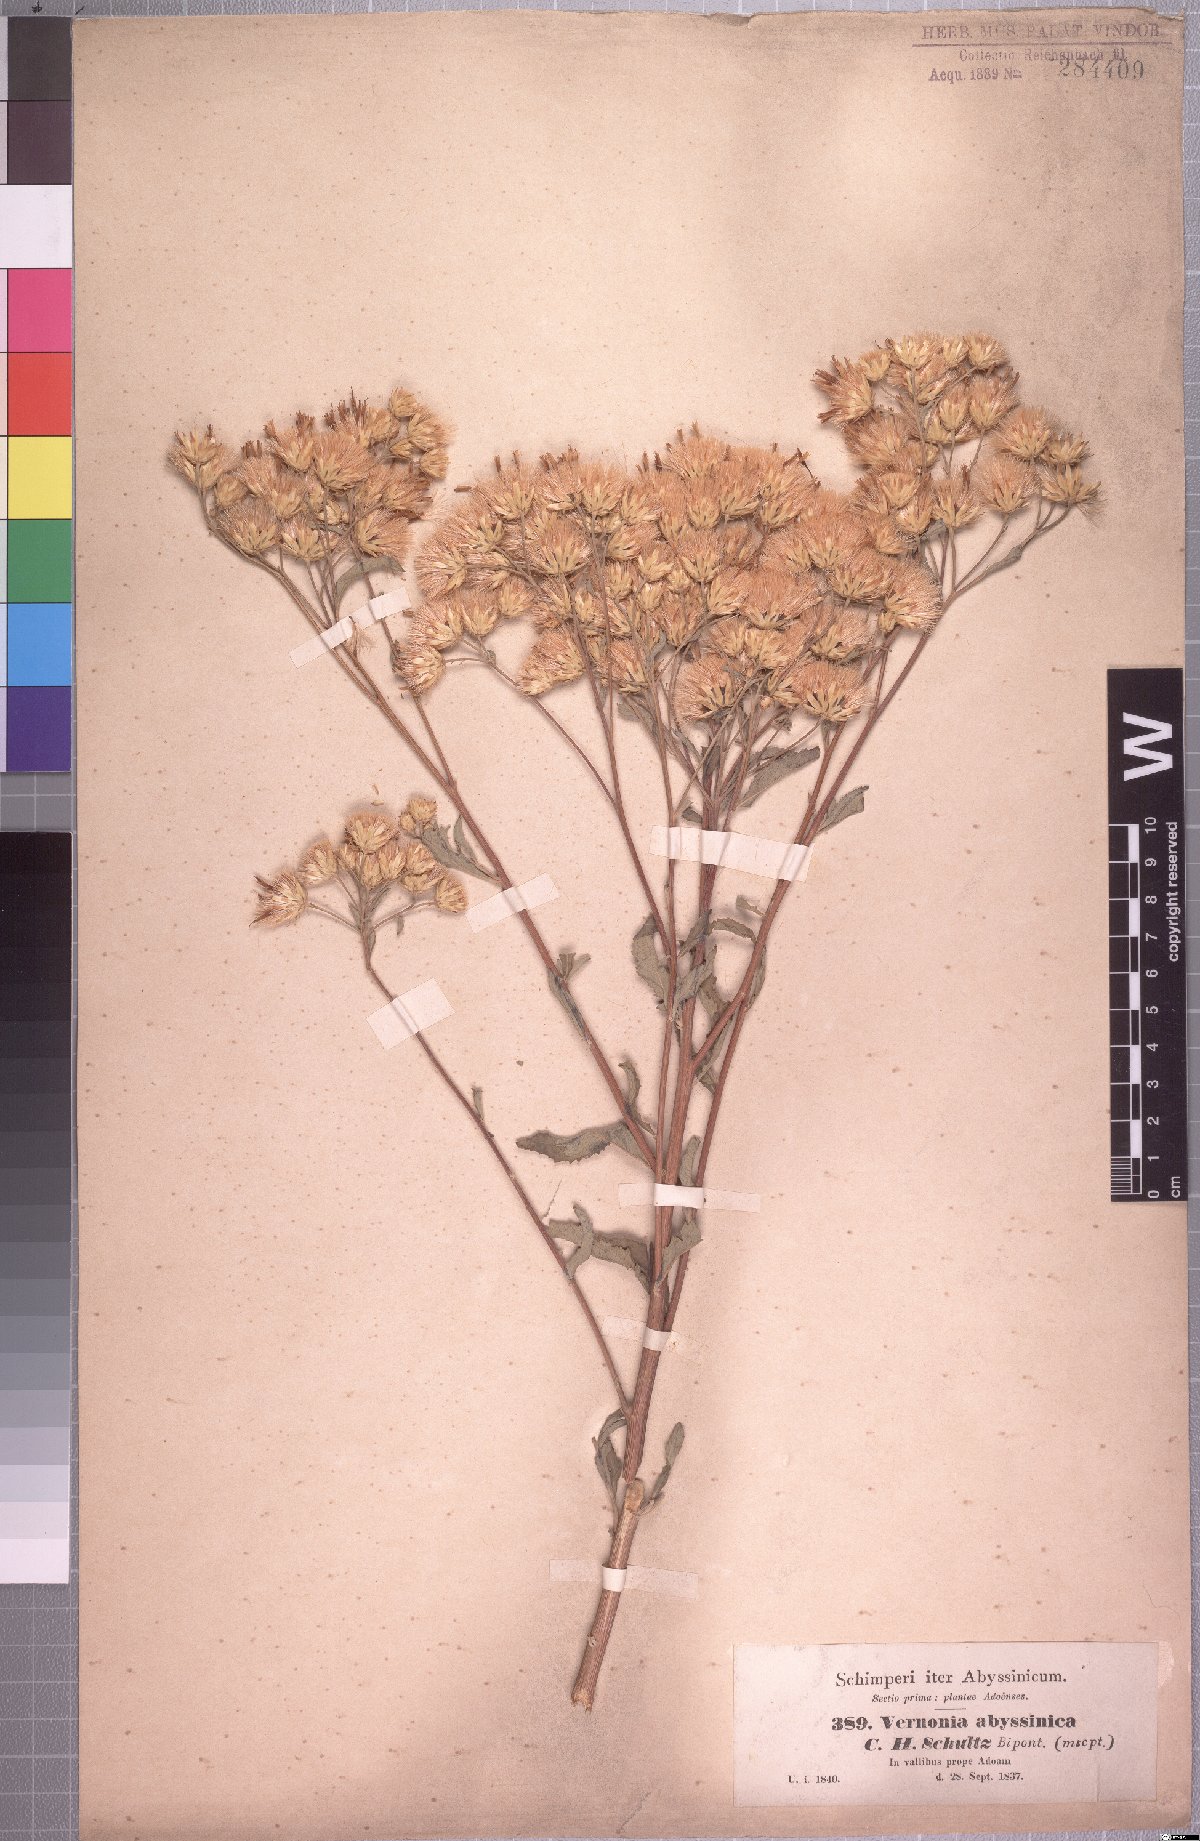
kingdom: Plantae
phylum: Tracheophyta
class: Magnoliopsida
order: Asterales
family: Asteraceae
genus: Baccharoides
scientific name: Baccharoides schimperi
